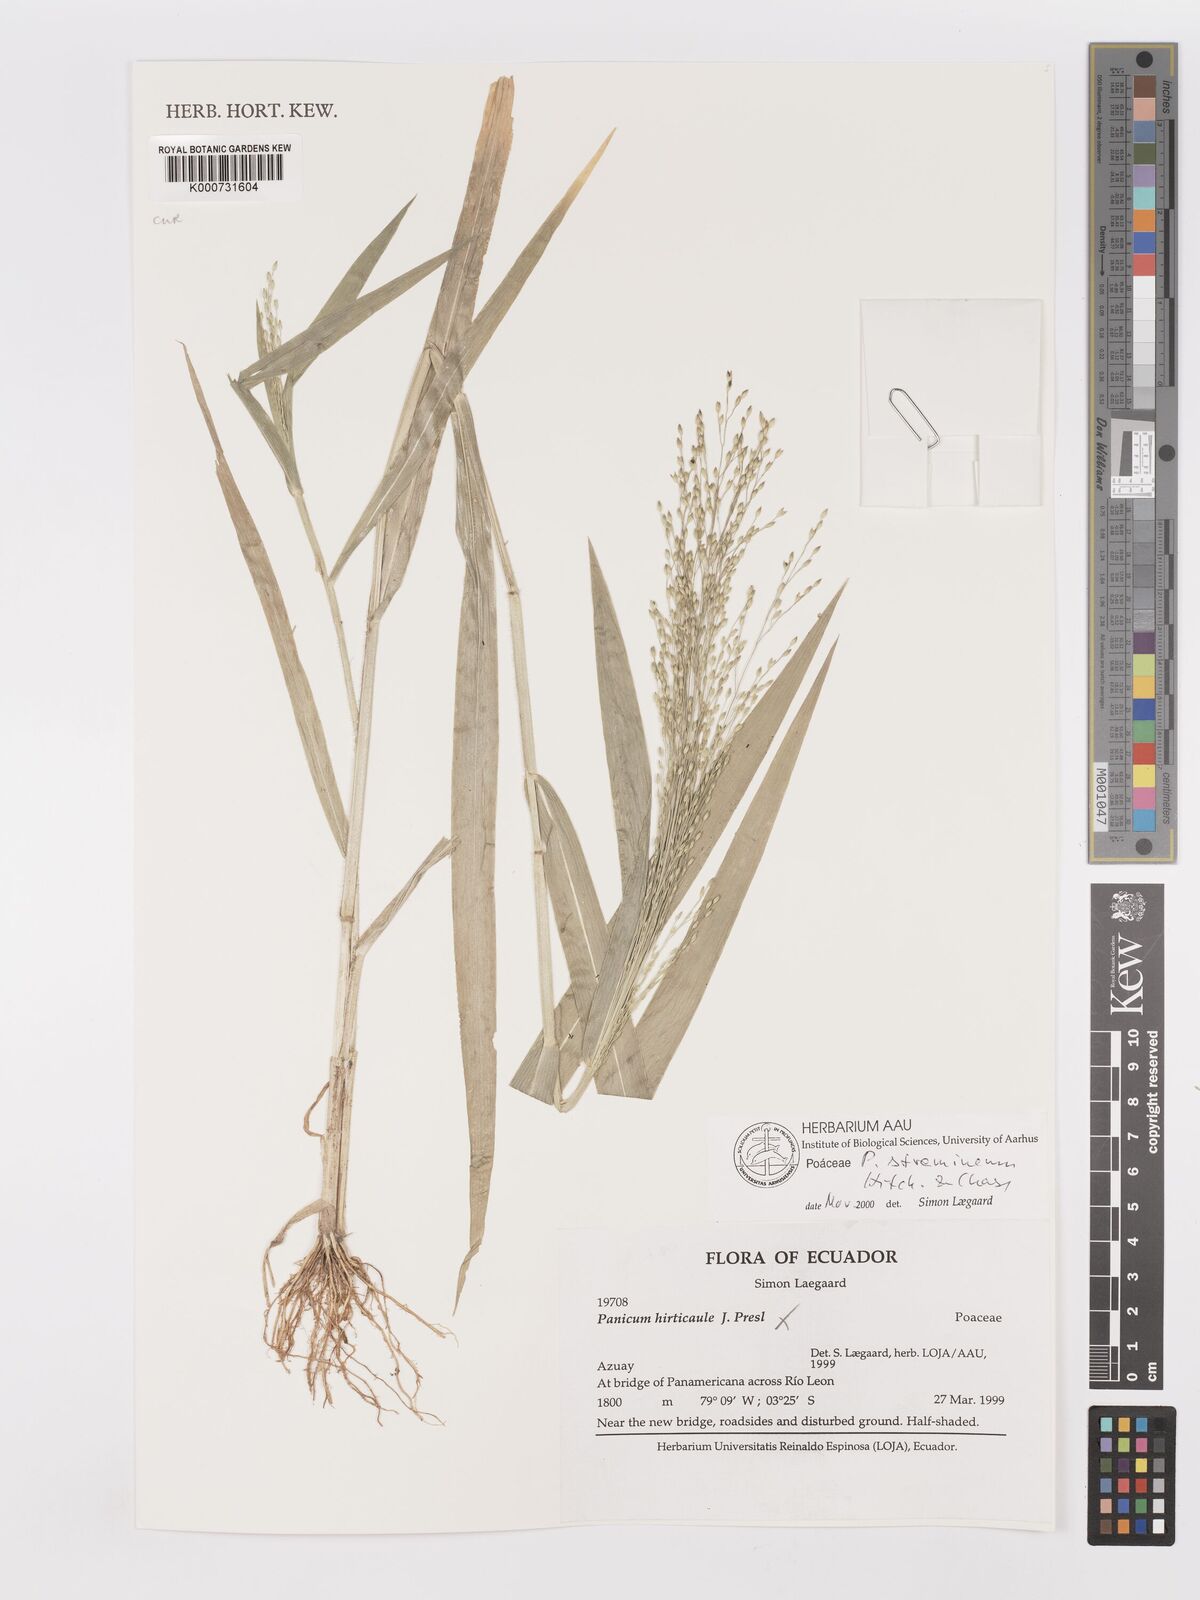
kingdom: Plantae
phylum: Tracheophyta
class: Liliopsida
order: Poales
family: Poaceae
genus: Panicum
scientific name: Panicum stramineum
